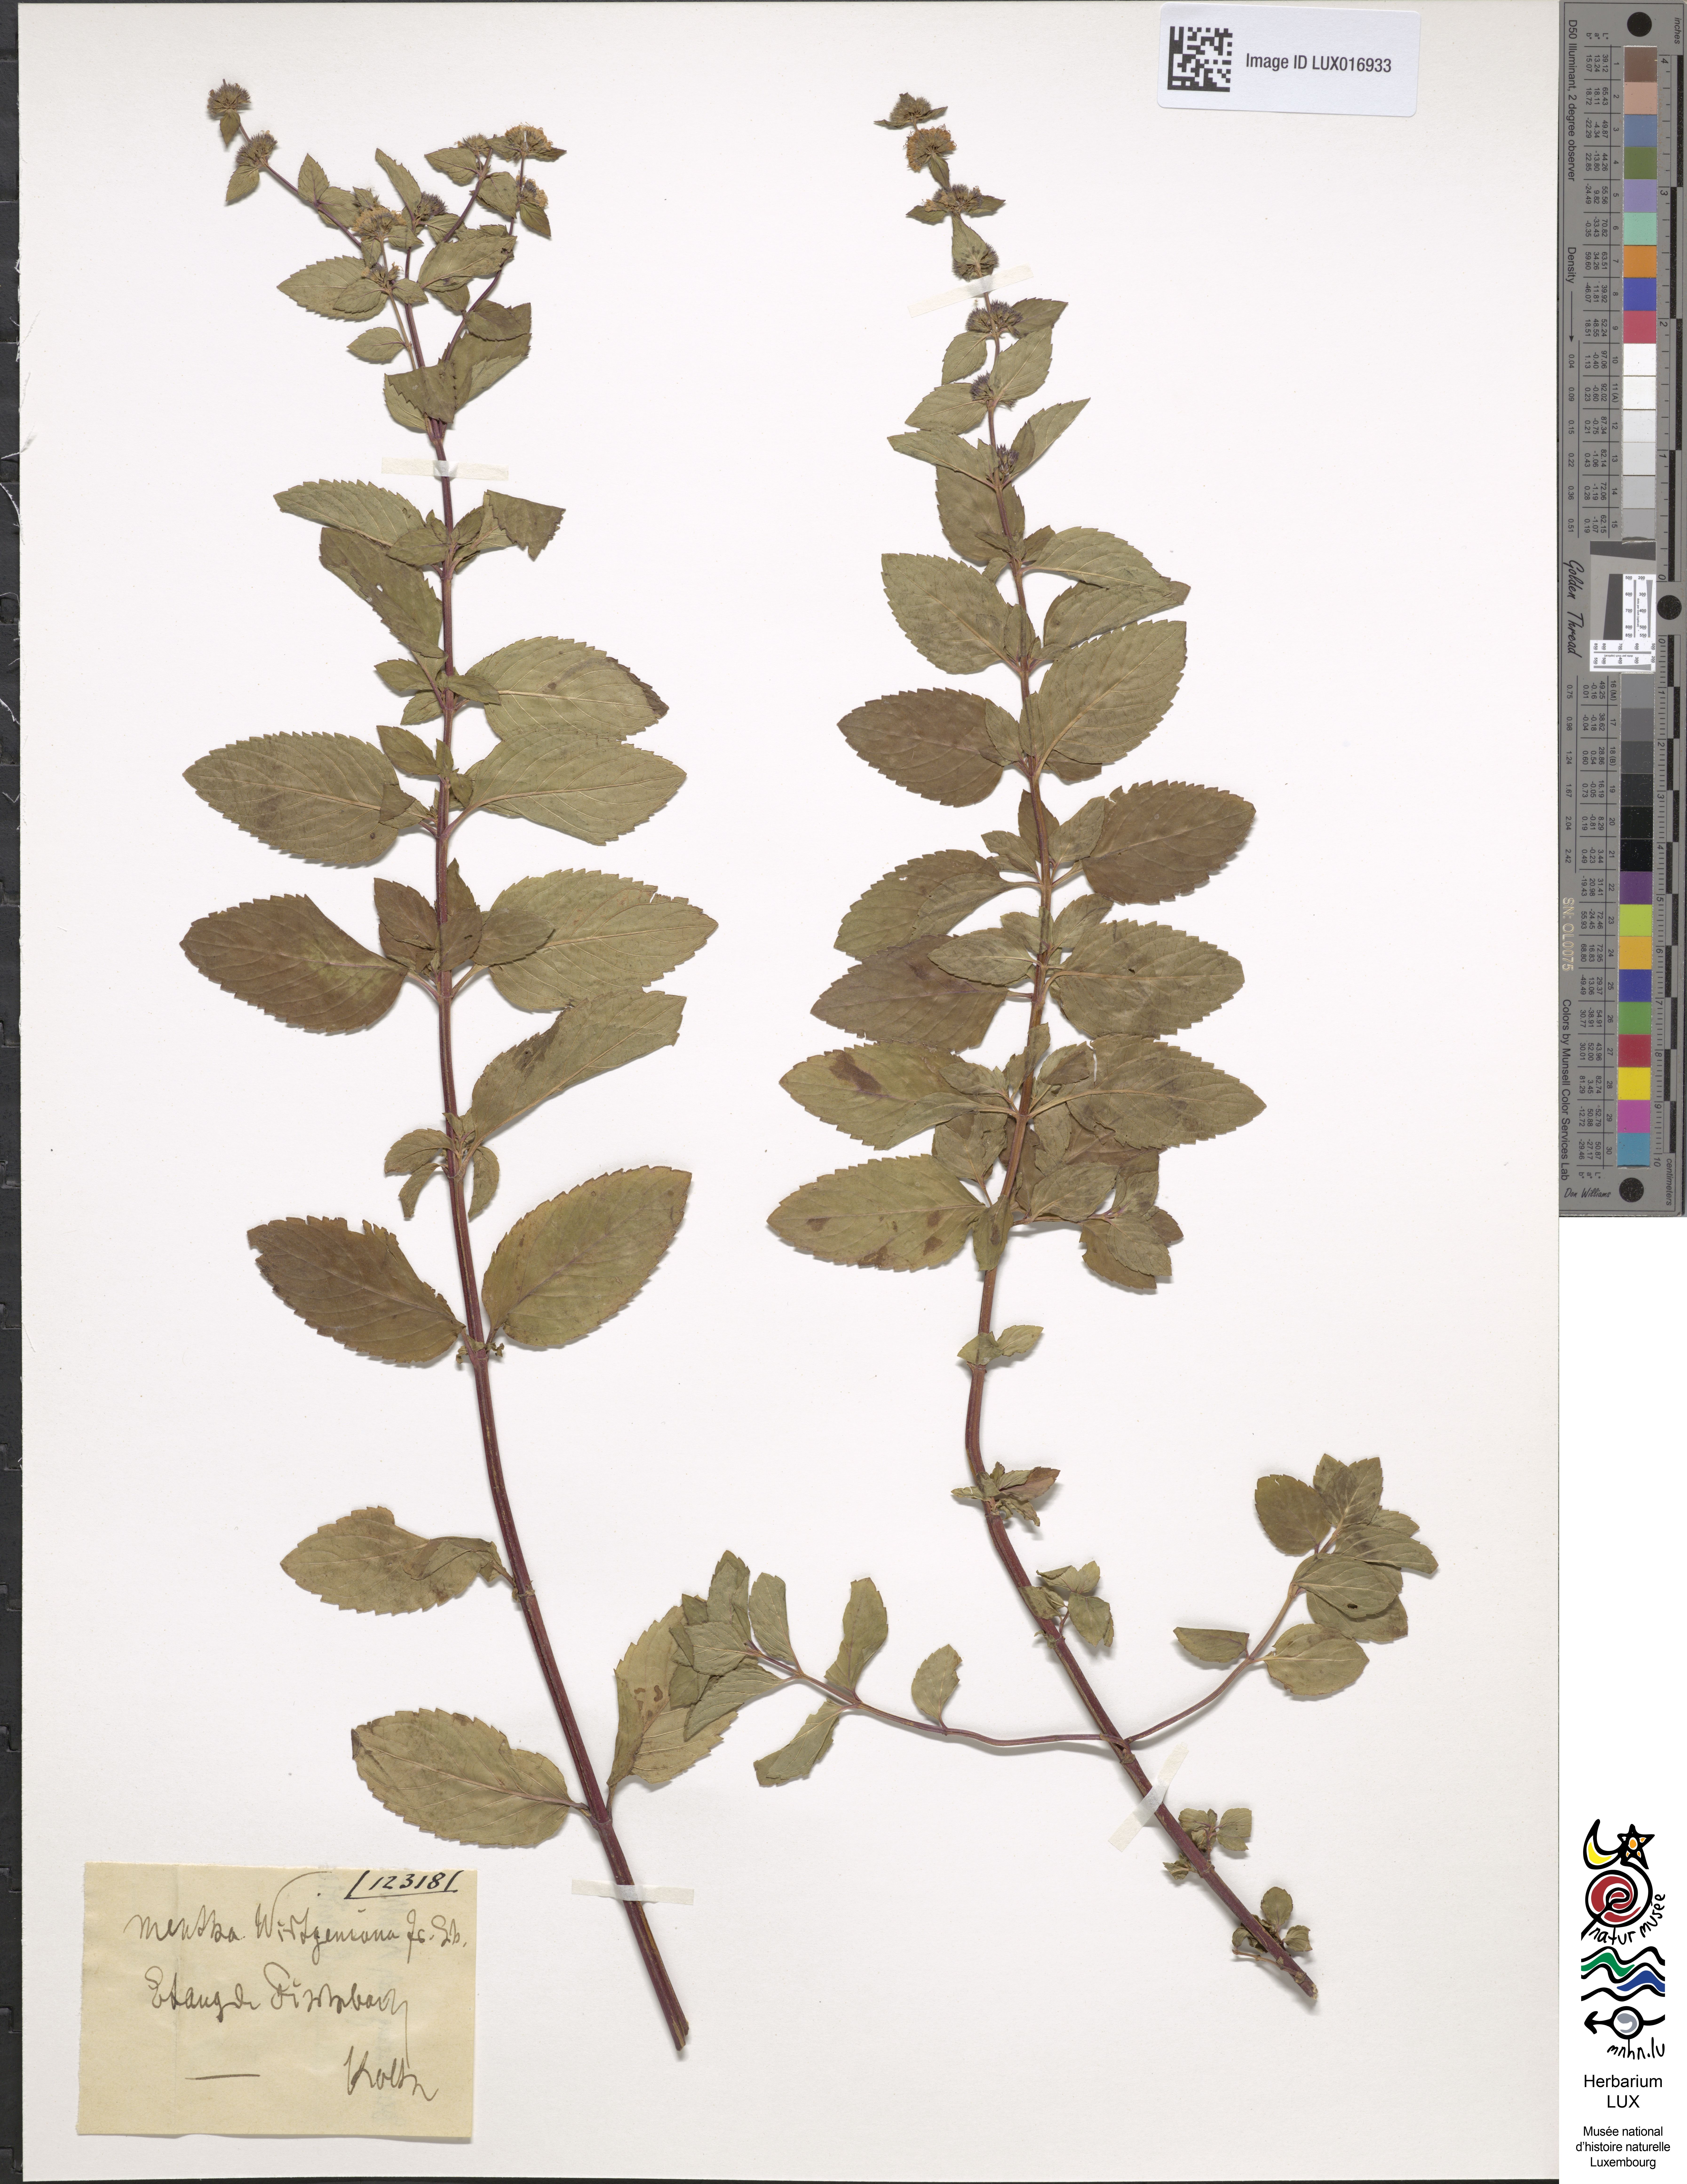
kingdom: Plantae
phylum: Tracheophyta
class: Magnoliopsida
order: Lamiales
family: Lamiaceae
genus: Mentha
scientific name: Mentha wirtgeniana
